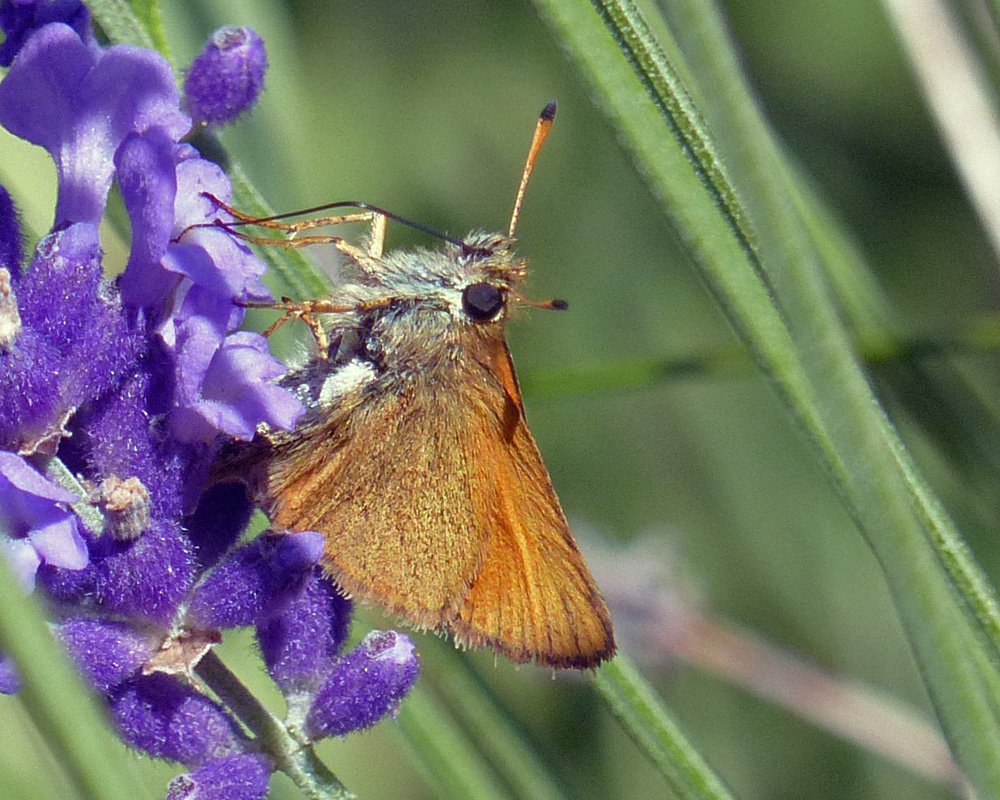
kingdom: Animalia
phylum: Arthropoda
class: Insecta
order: Lepidoptera
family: Hesperiidae
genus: Thymelicus
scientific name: Thymelicus lineola
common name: European Skipper
